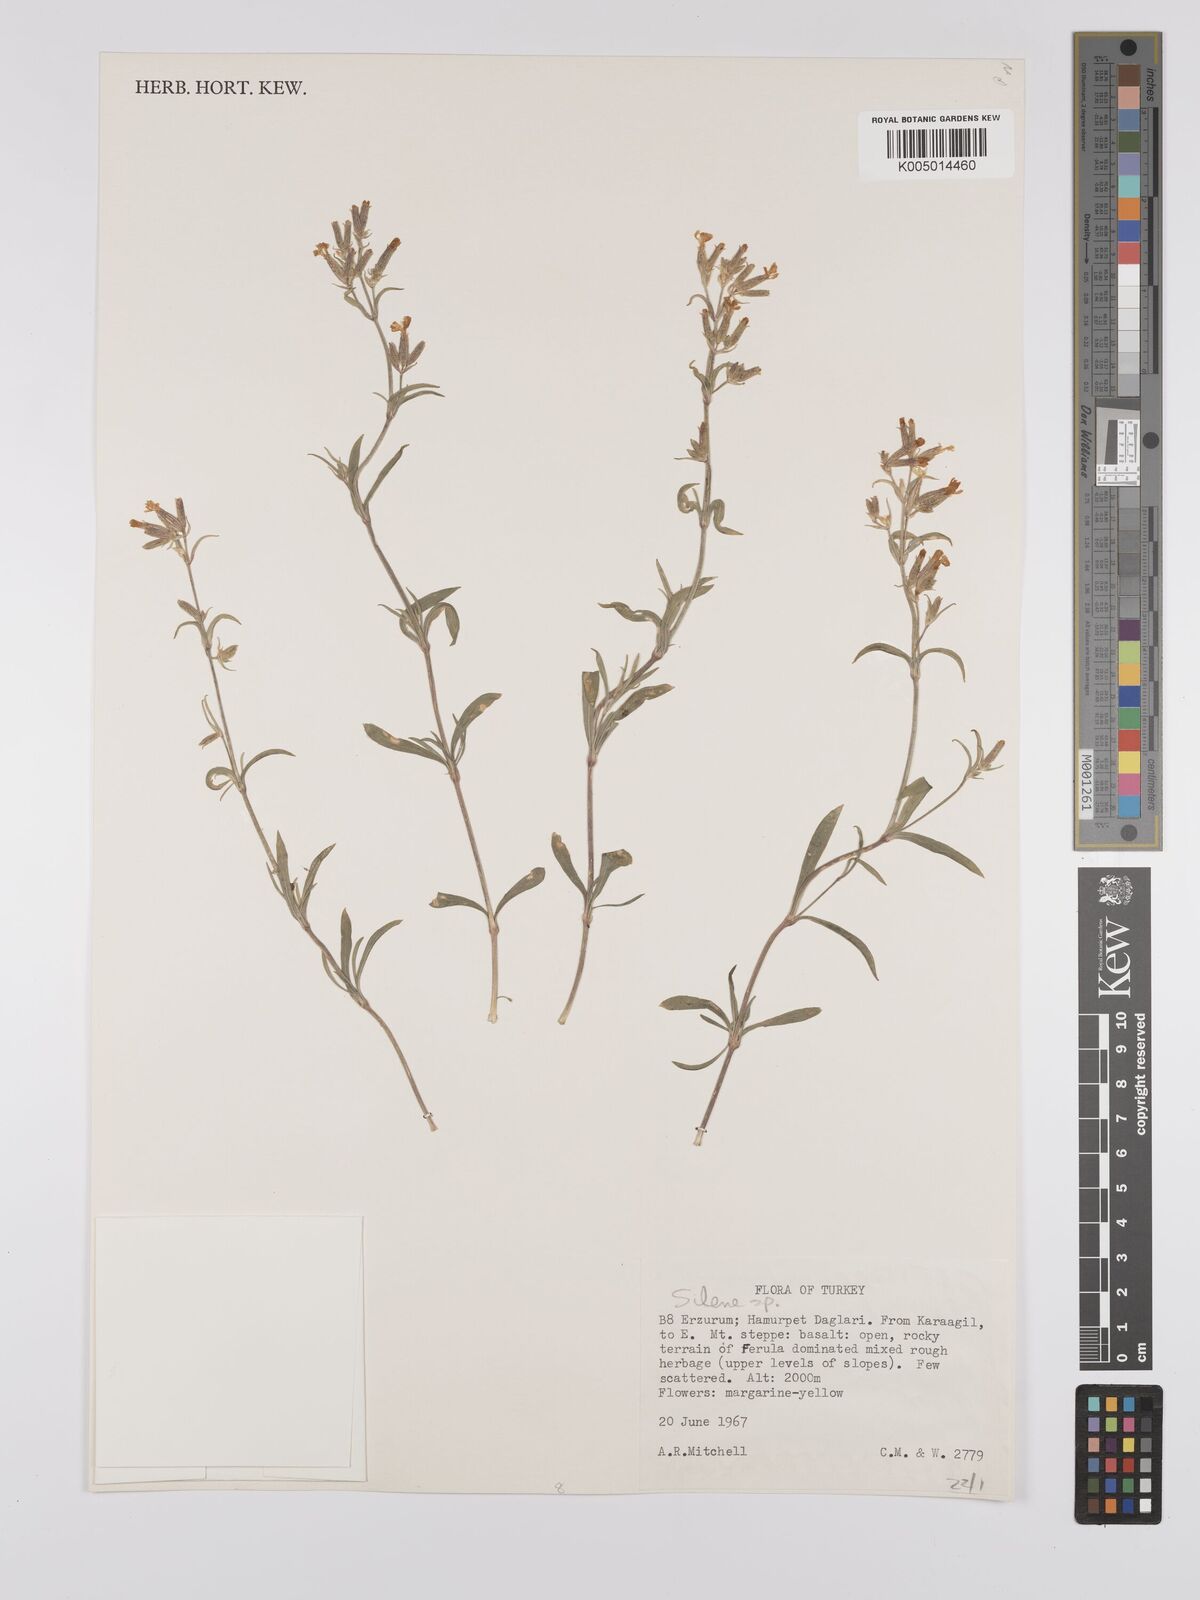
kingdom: Plantae
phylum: Tracheophyta
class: Magnoliopsida
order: Caryophyllales
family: Caryophyllaceae
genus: Silene
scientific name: Silene
